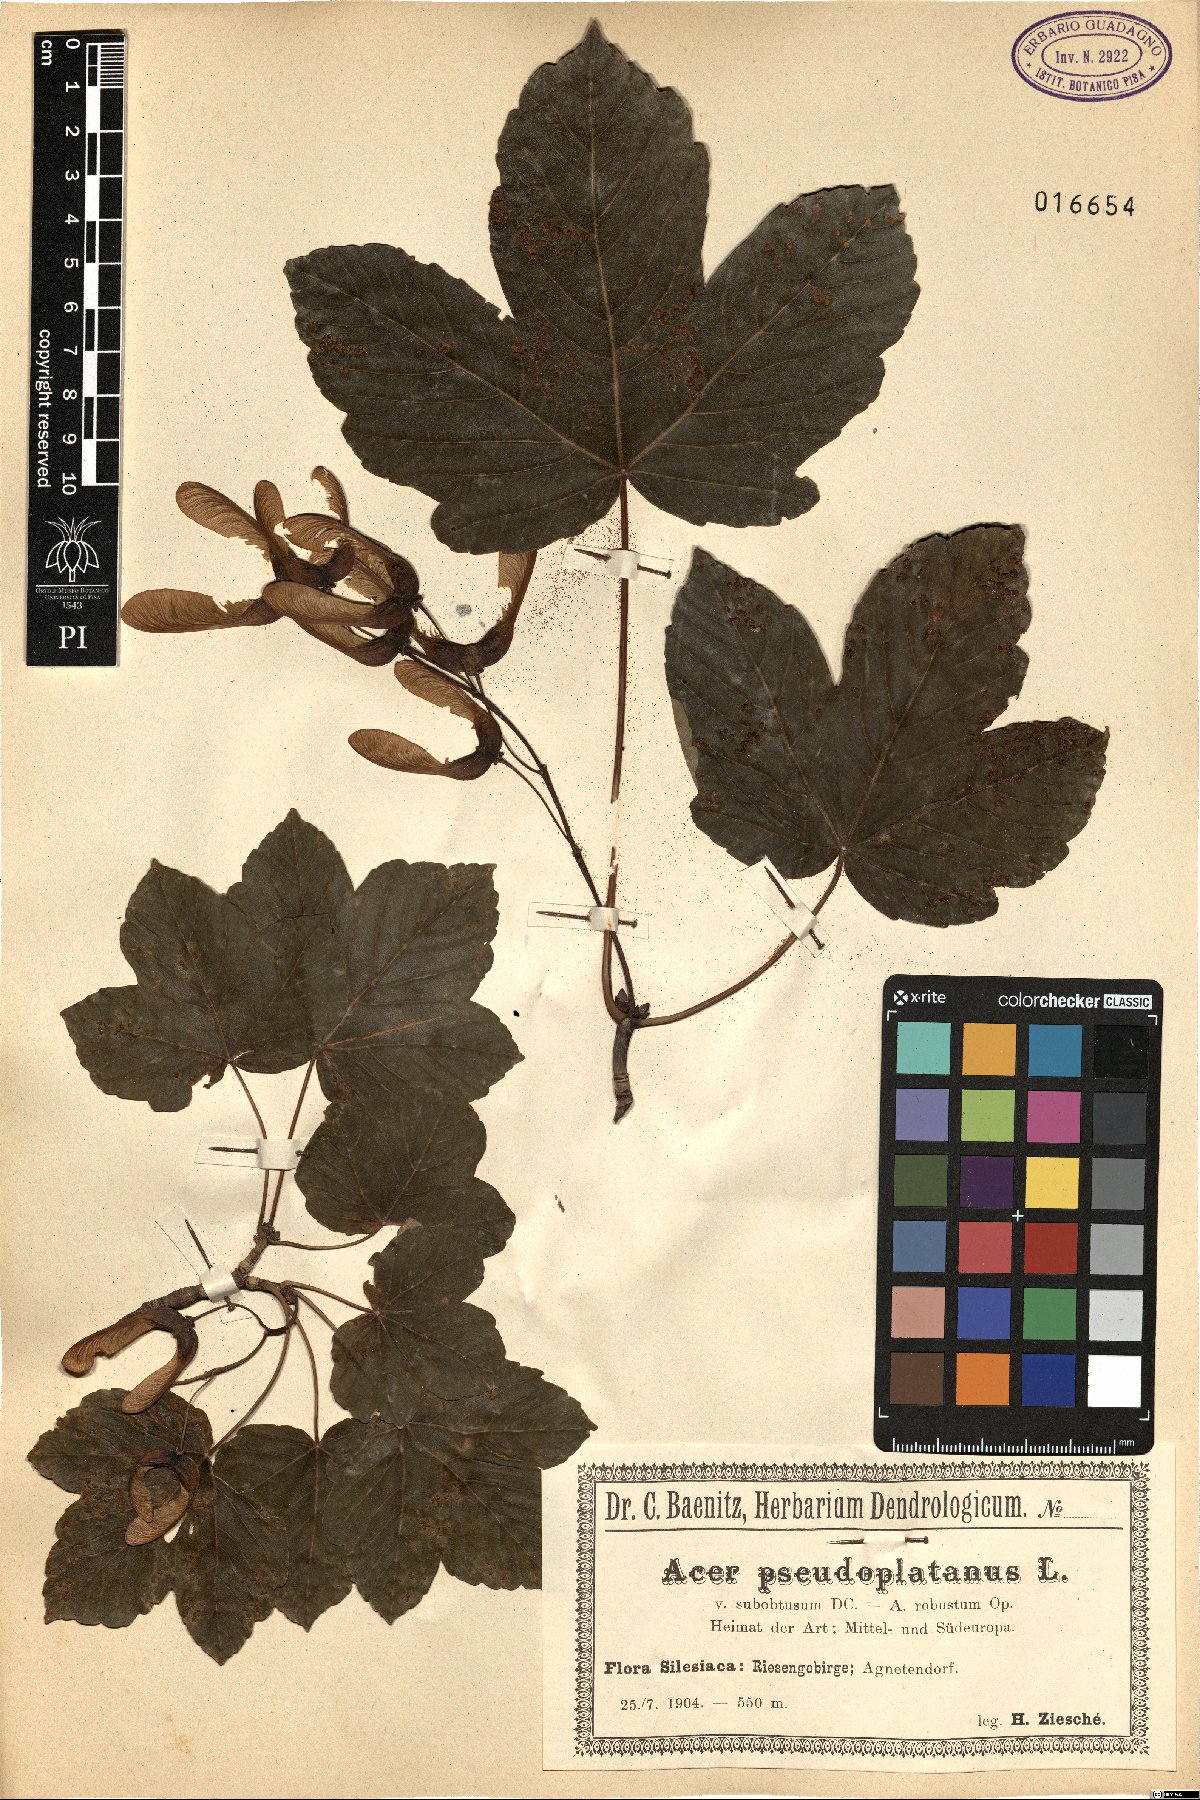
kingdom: Plantae
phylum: Tracheophyta
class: Magnoliopsida
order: Sapindales
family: Sapindaceae
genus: Acer
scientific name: Acer pseudoplatanus
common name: Sycamore
